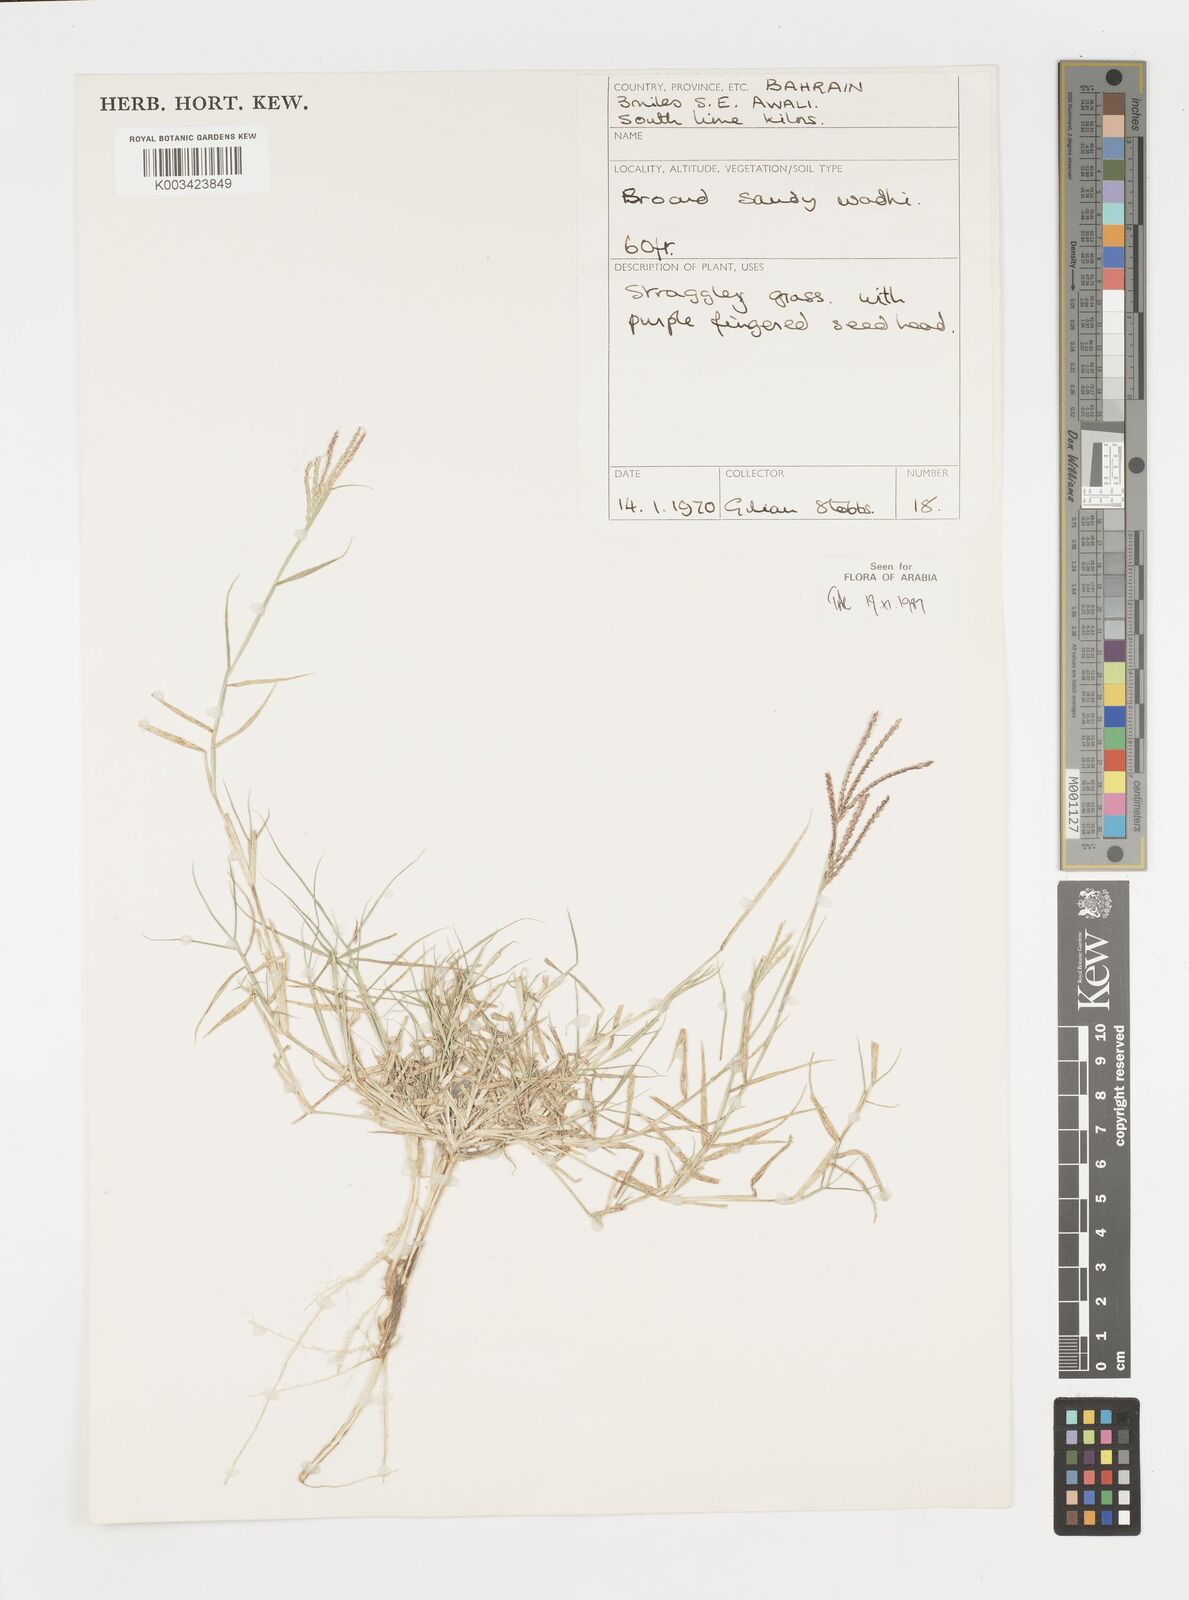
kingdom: Plantae
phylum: Tracheophyta
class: Liliopsida
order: Poales
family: Poaceae
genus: Cynodon
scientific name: Cynodon dactylon
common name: Bermuda grass
